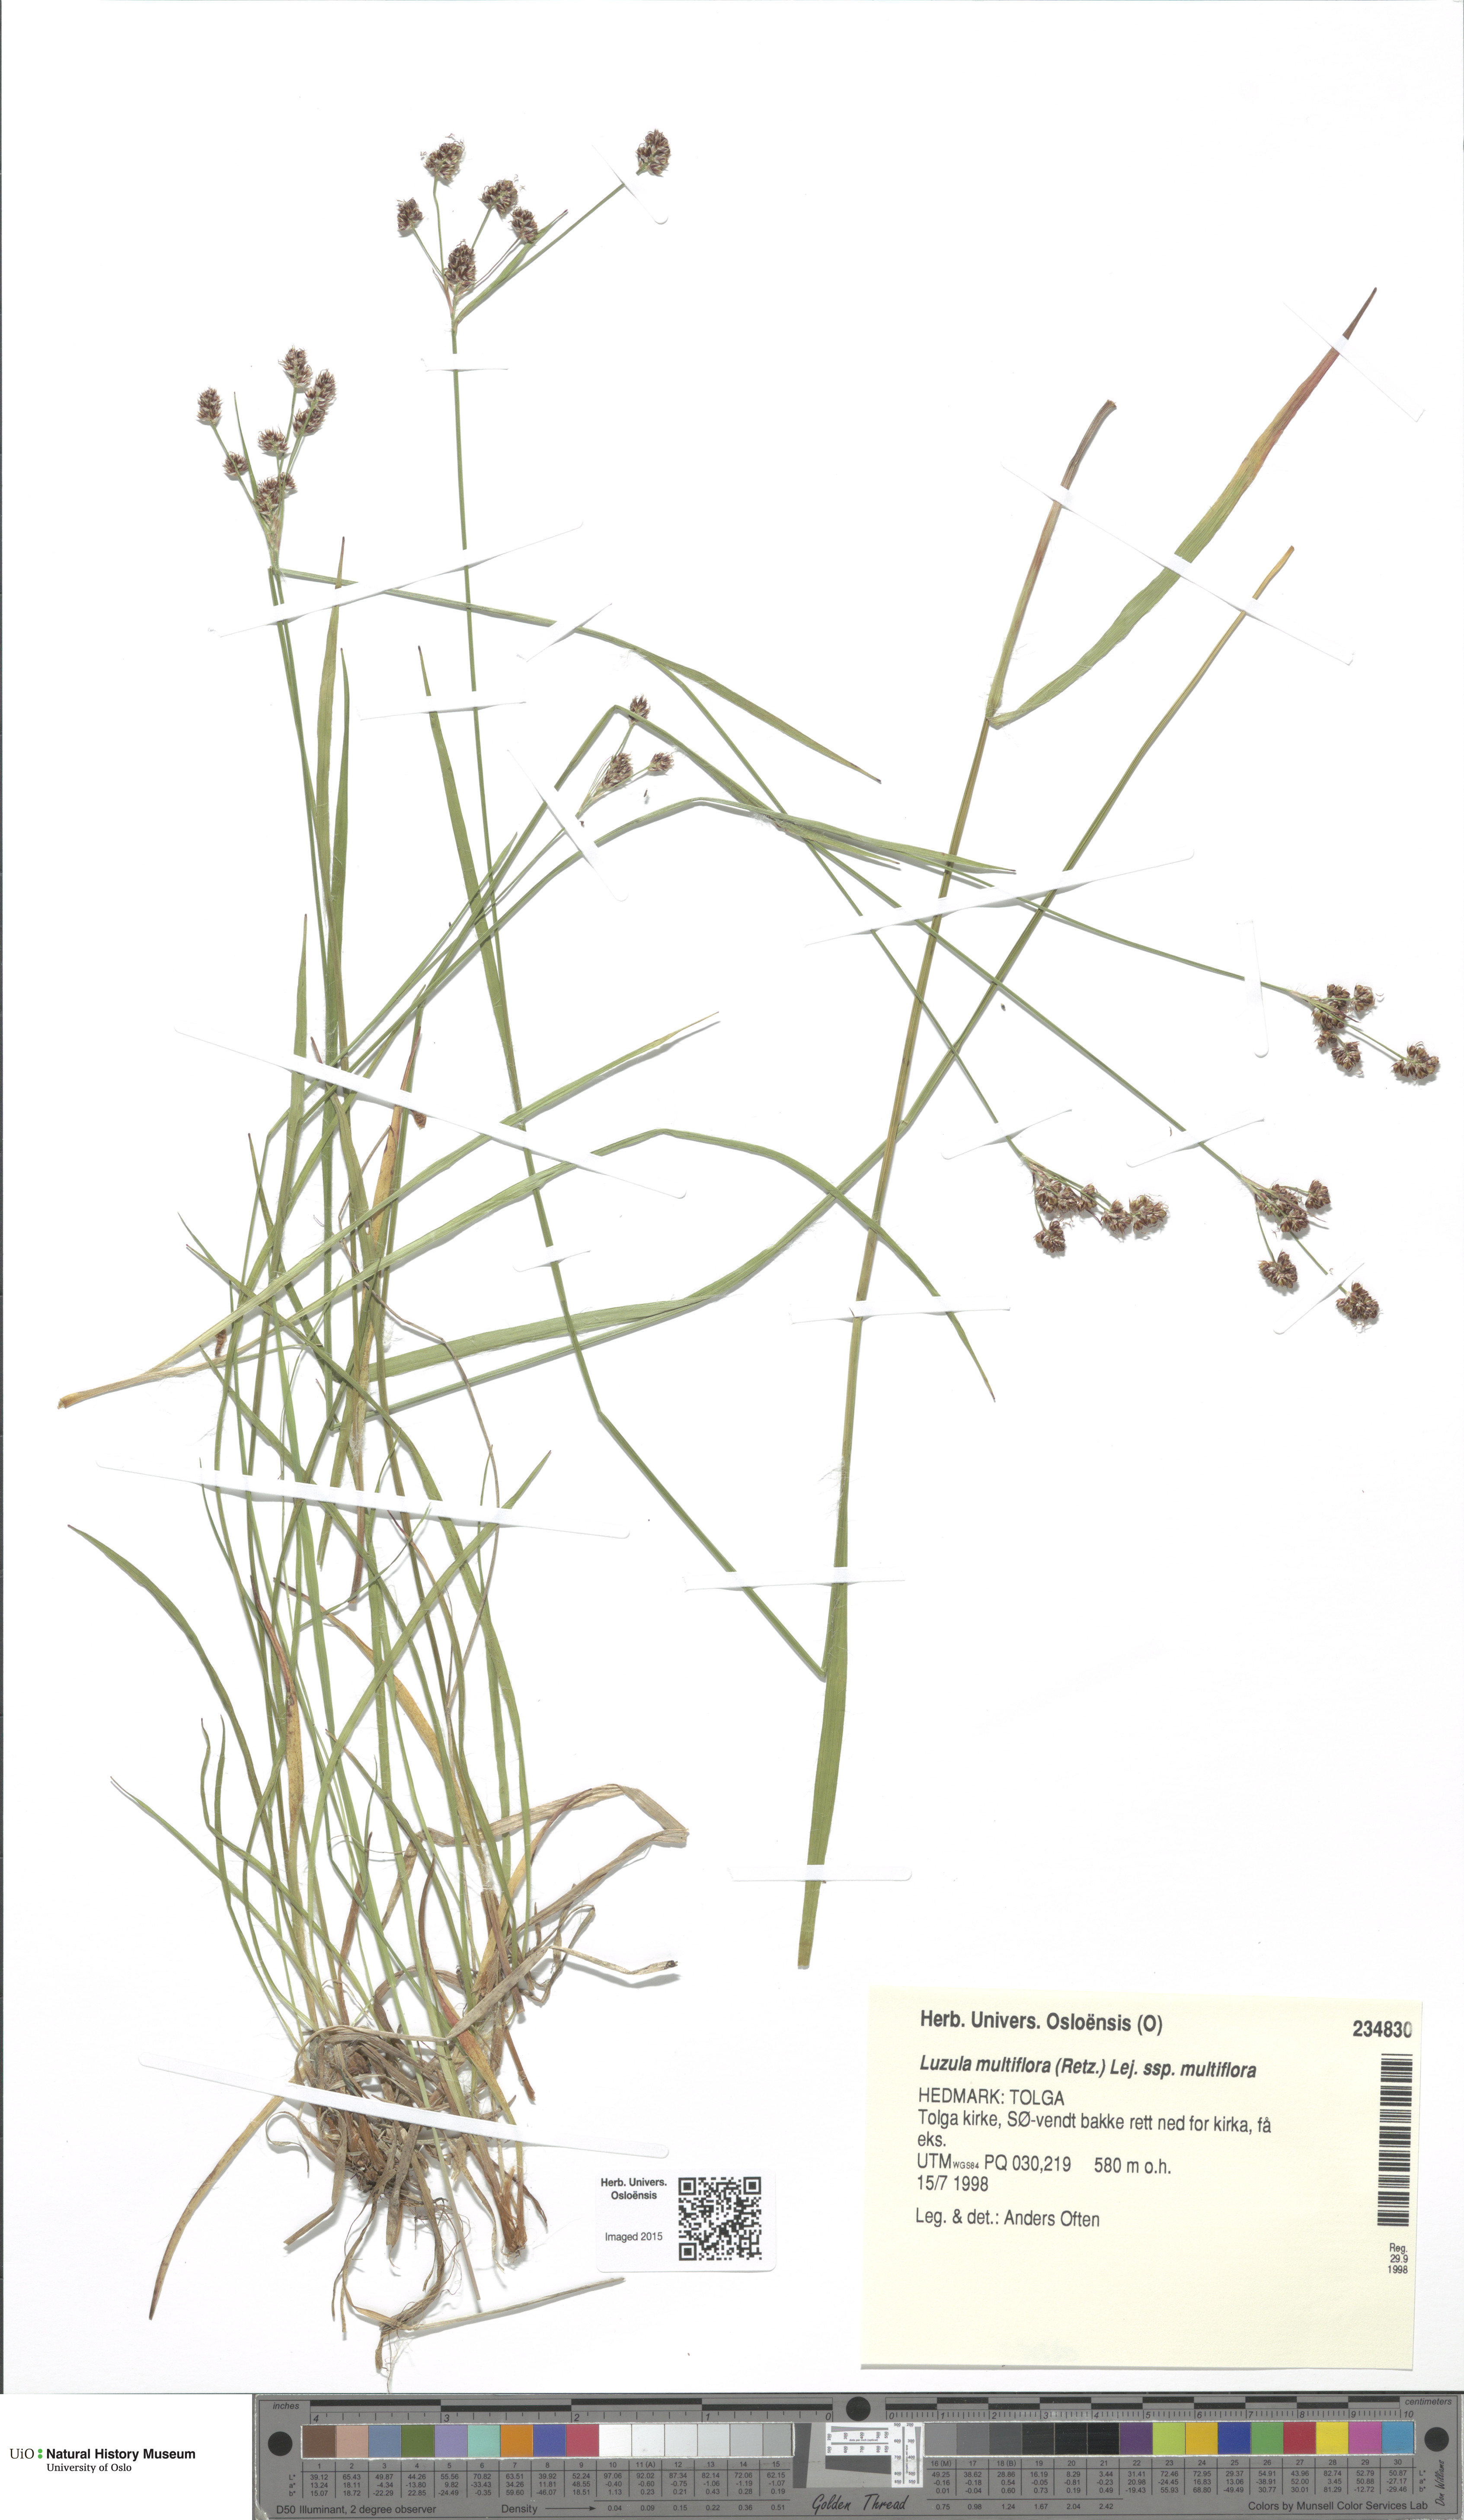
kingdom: Plantae
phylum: Tracheophyta
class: Liliopsida
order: Poales
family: Juncaceae
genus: Luzula
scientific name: Luzula multiflora
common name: Heath wood-rush
